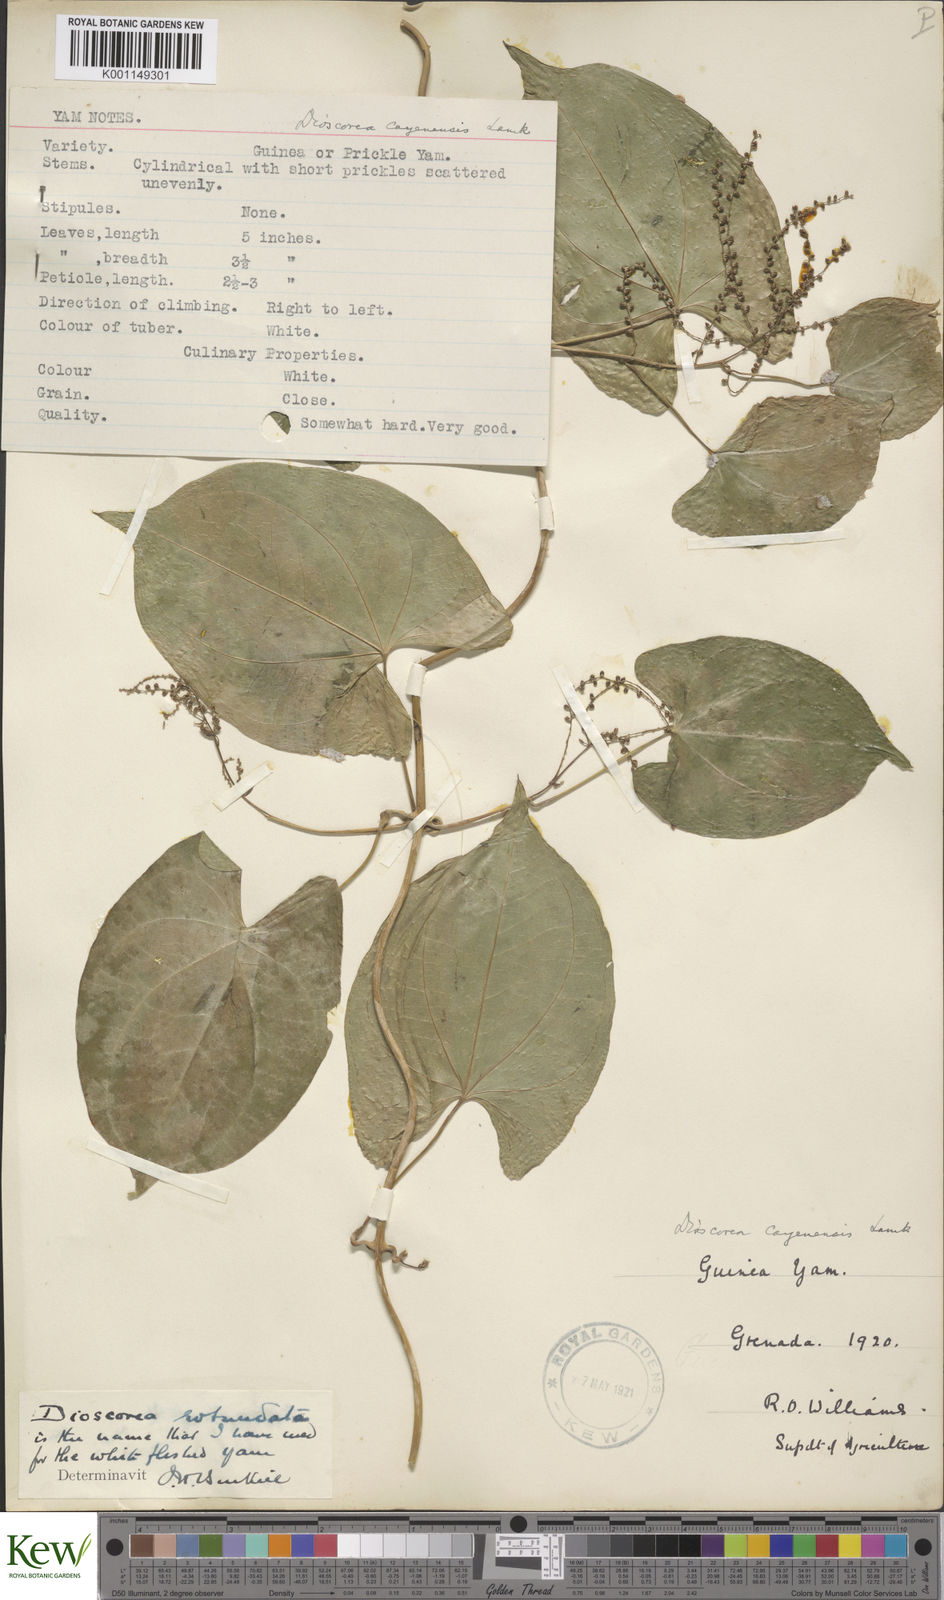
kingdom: Plantae
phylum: Tracheophyta
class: Liliopsida
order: Dioscoreales
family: Dioscoreaceae
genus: Dioscorea
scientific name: Dioscorea cayenensis
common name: Attoto yam
